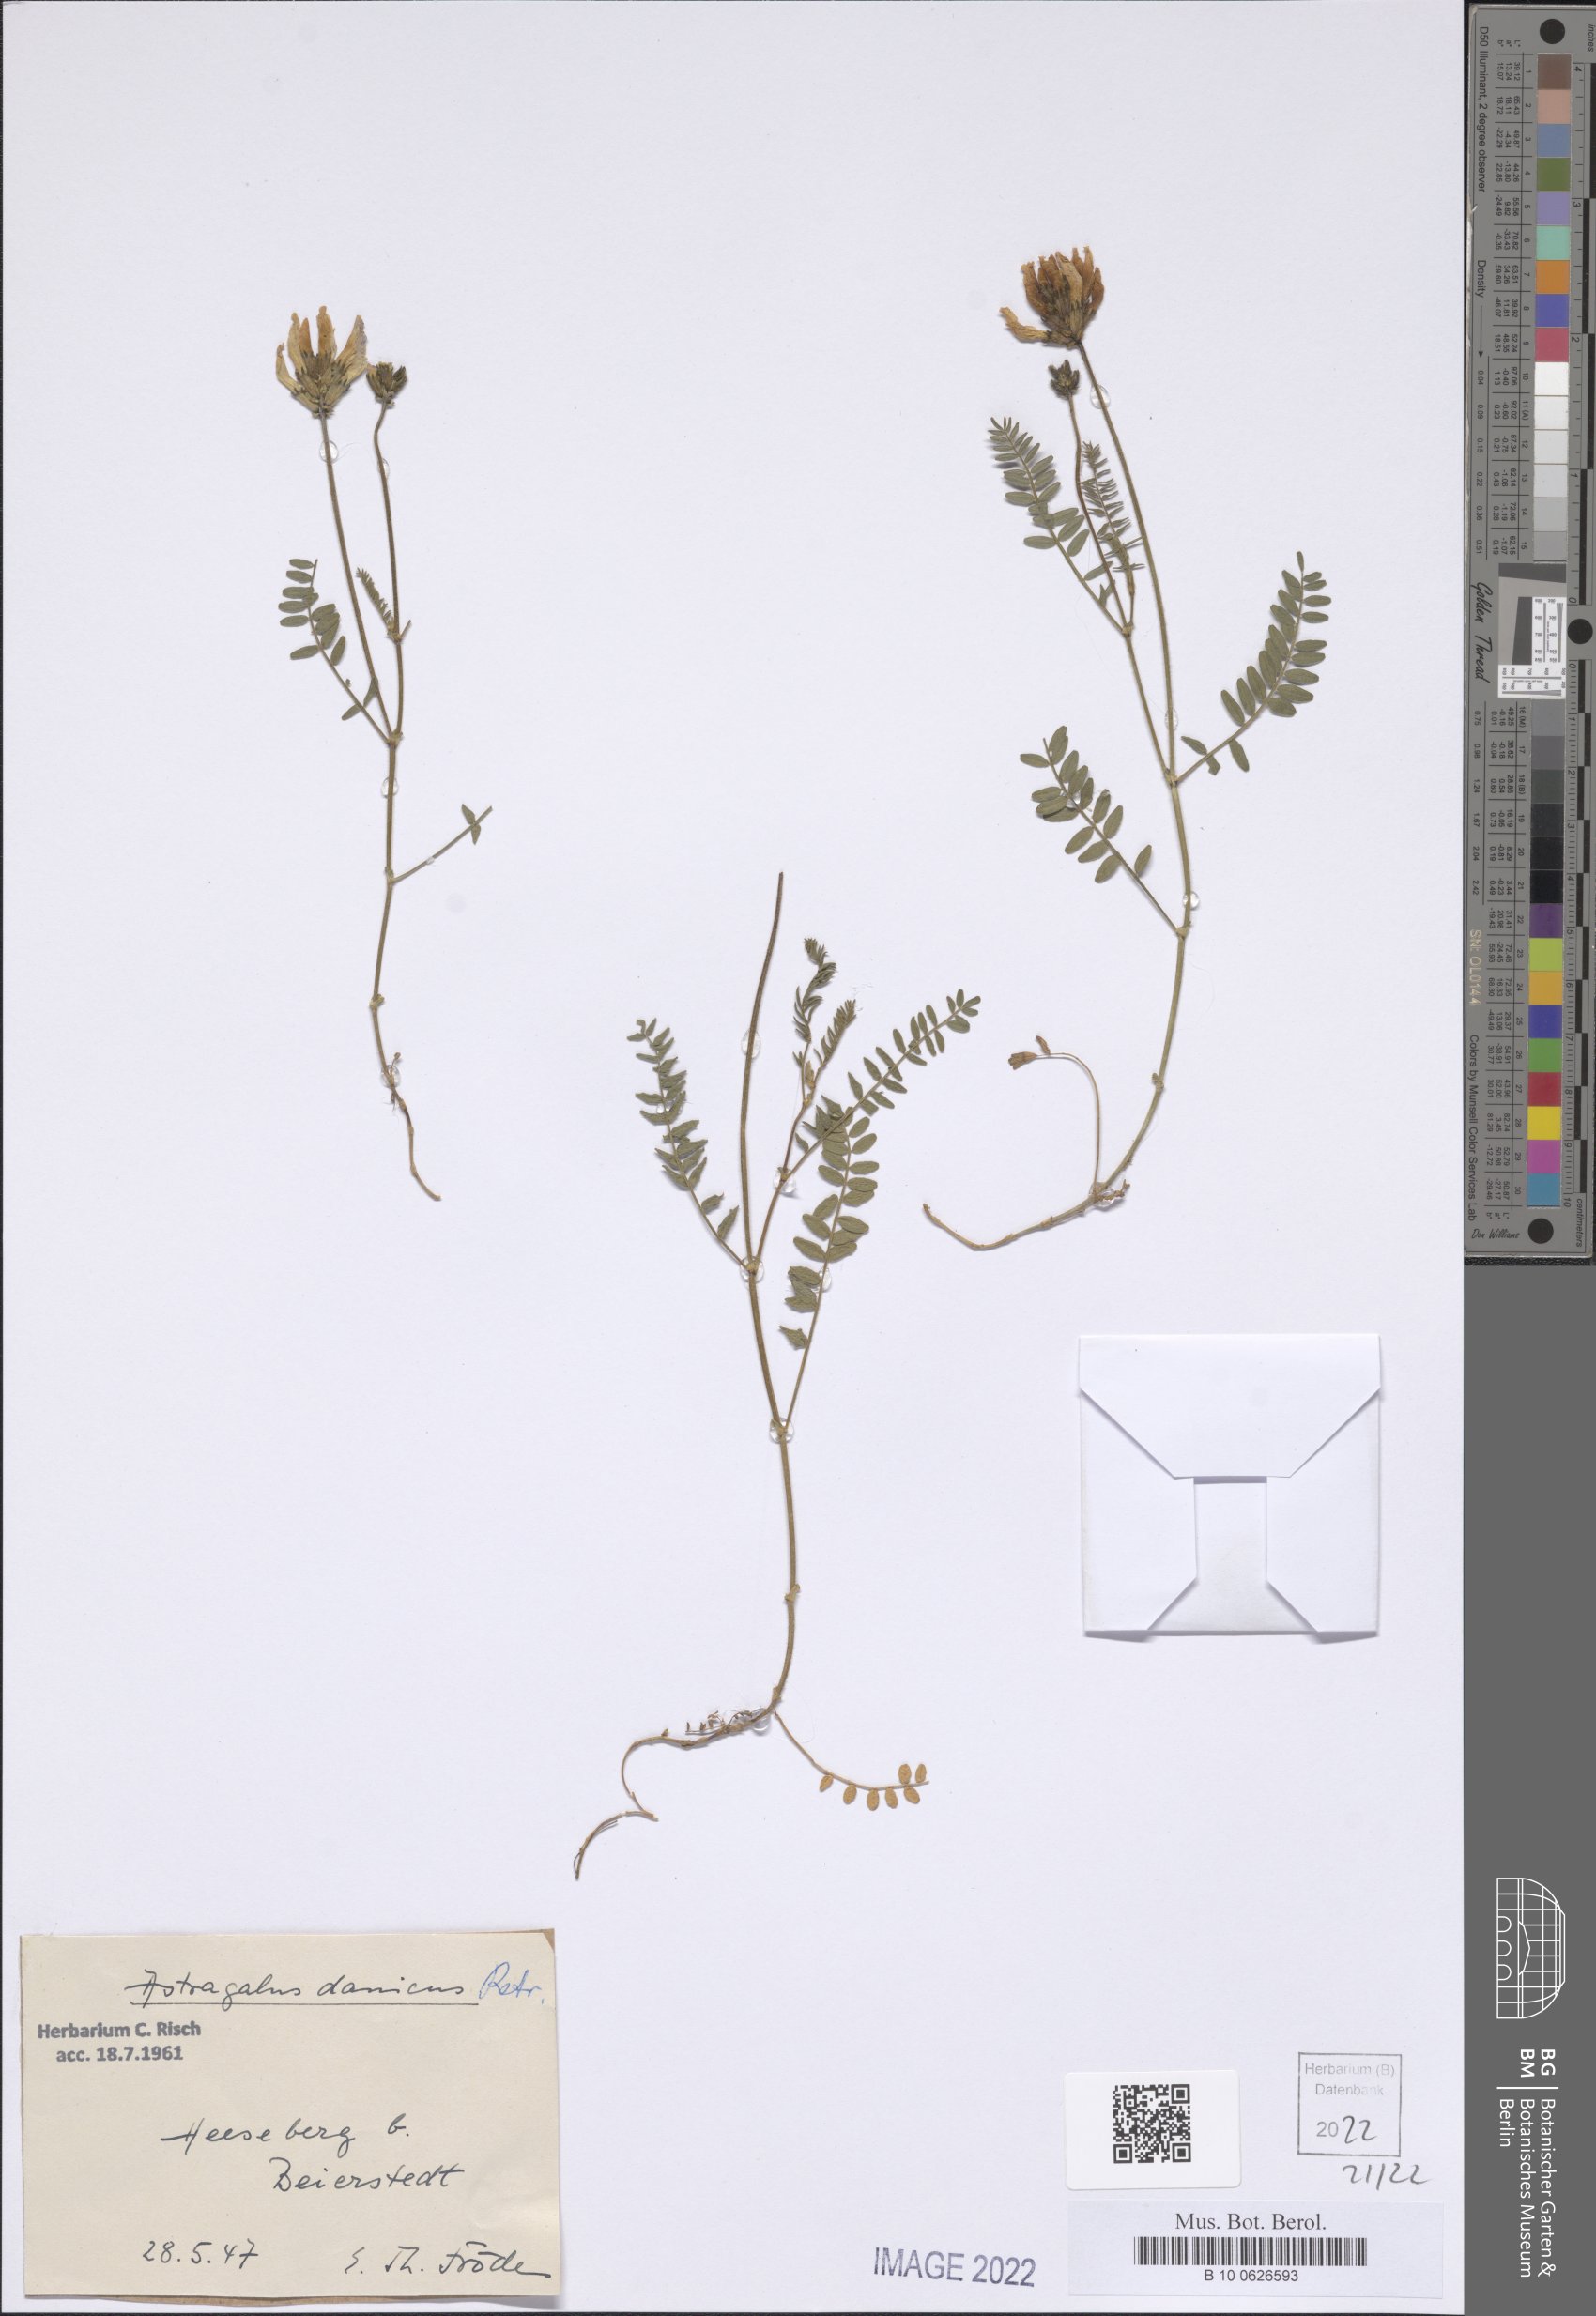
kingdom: Plantae
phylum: Tracheophyta
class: Magnoliopsida
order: Fabales
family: Fabaceae
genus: Astragalus
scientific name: Astragalus danicus
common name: Purple milk-vetch
